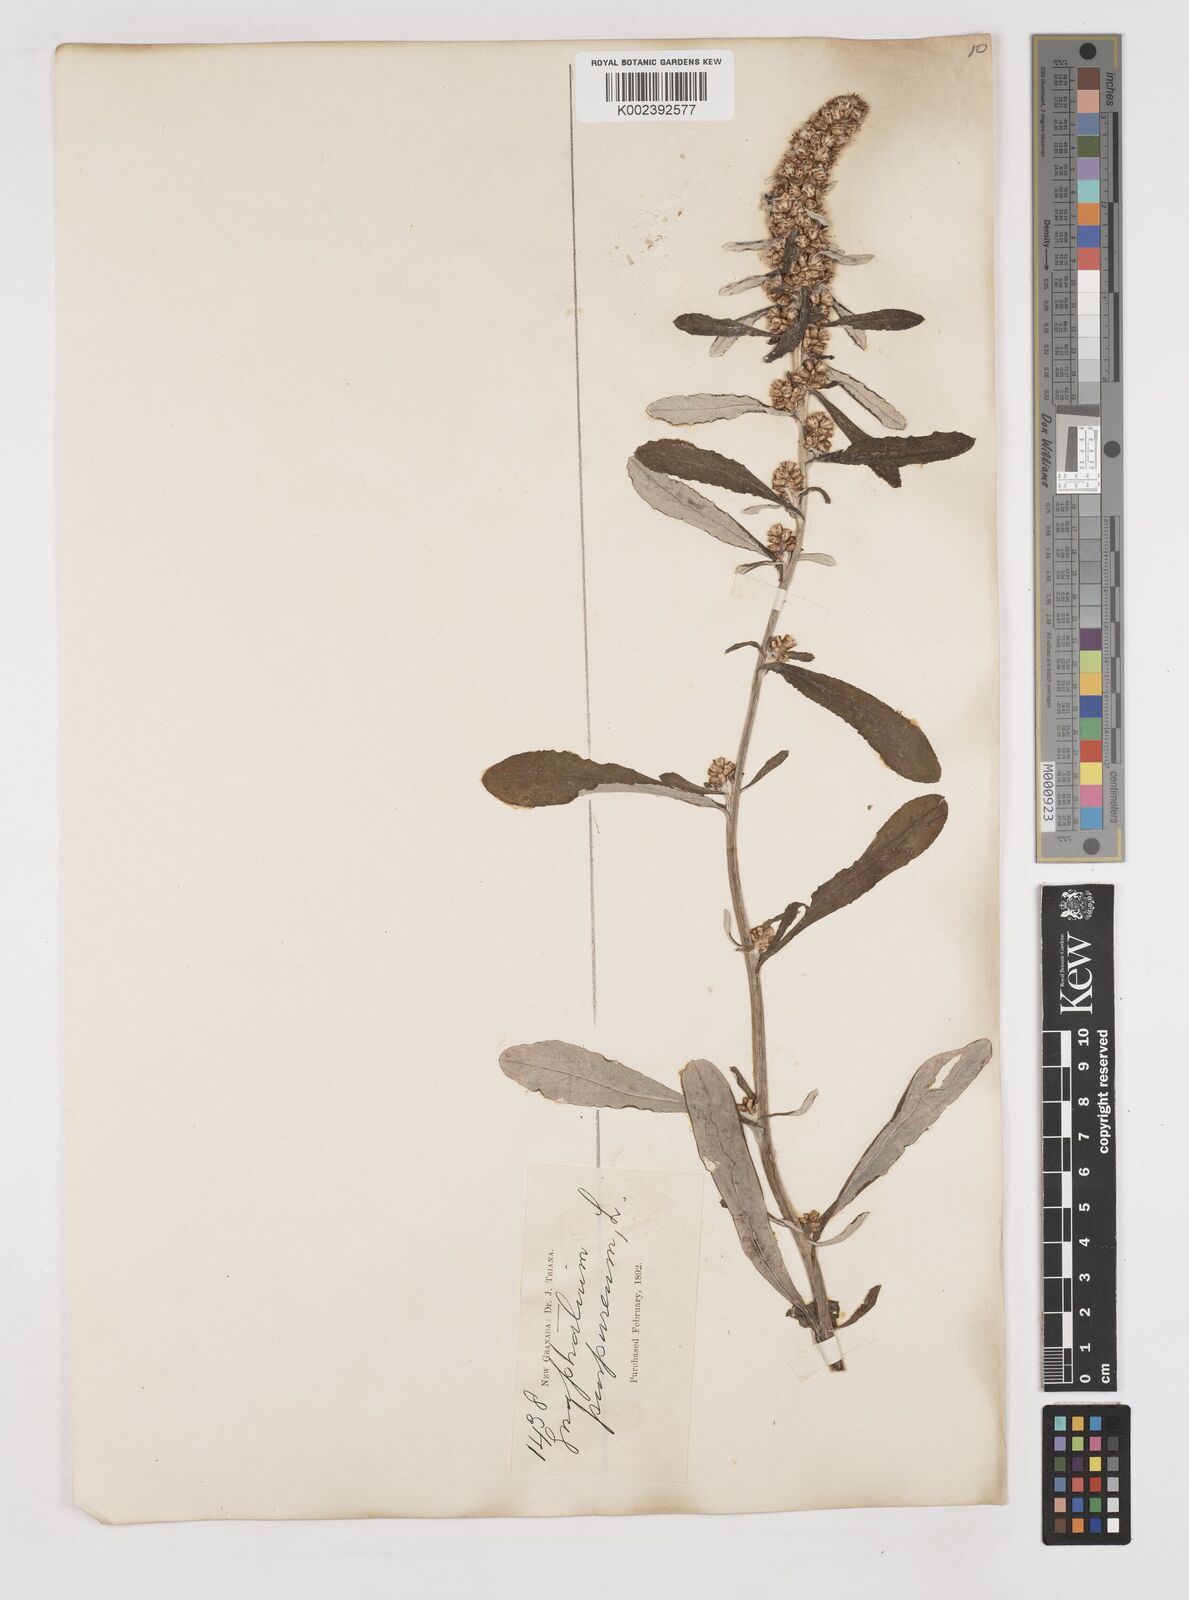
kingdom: Plantae
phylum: Tracheophyta
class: Magnoliopsida
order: Asterales
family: Asteraceae
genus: Pseudognaphalium
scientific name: Pseudognaphalium purpurascens
